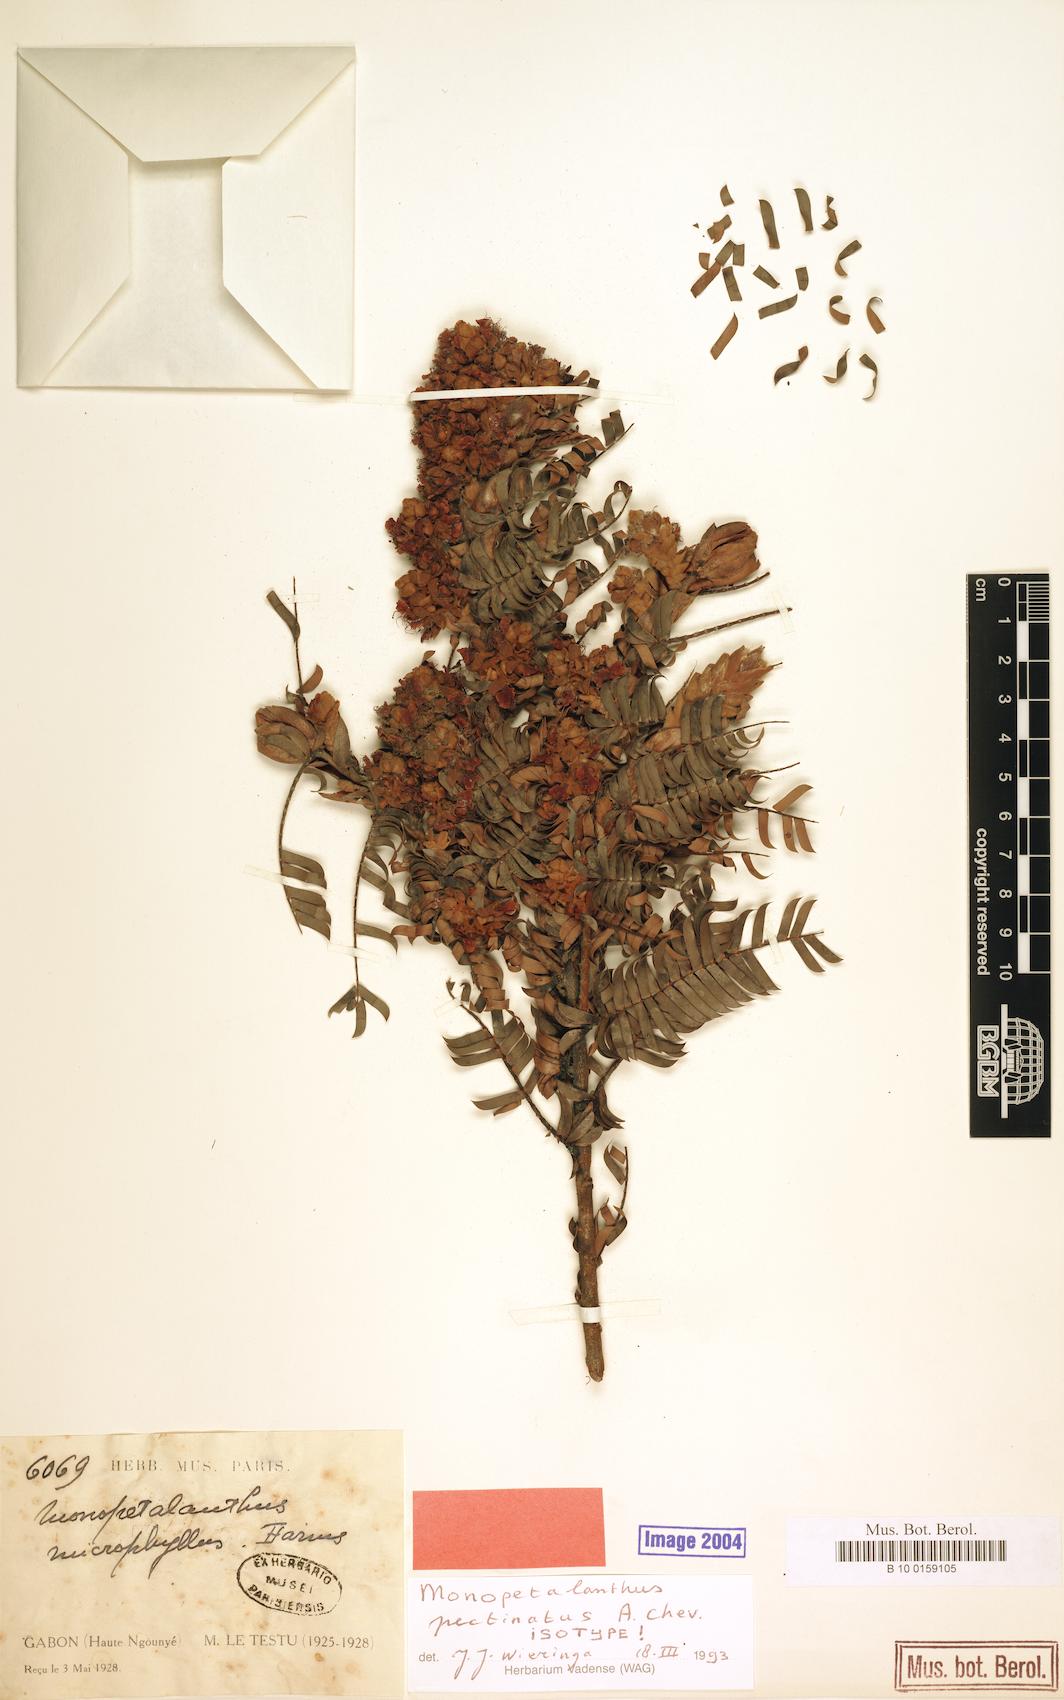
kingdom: Plantae
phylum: Tracheophyta
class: Magnoliopsida
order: Fabales
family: Fabaceae
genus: Aphanocalyx
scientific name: Aphanocalyx pectinatus
